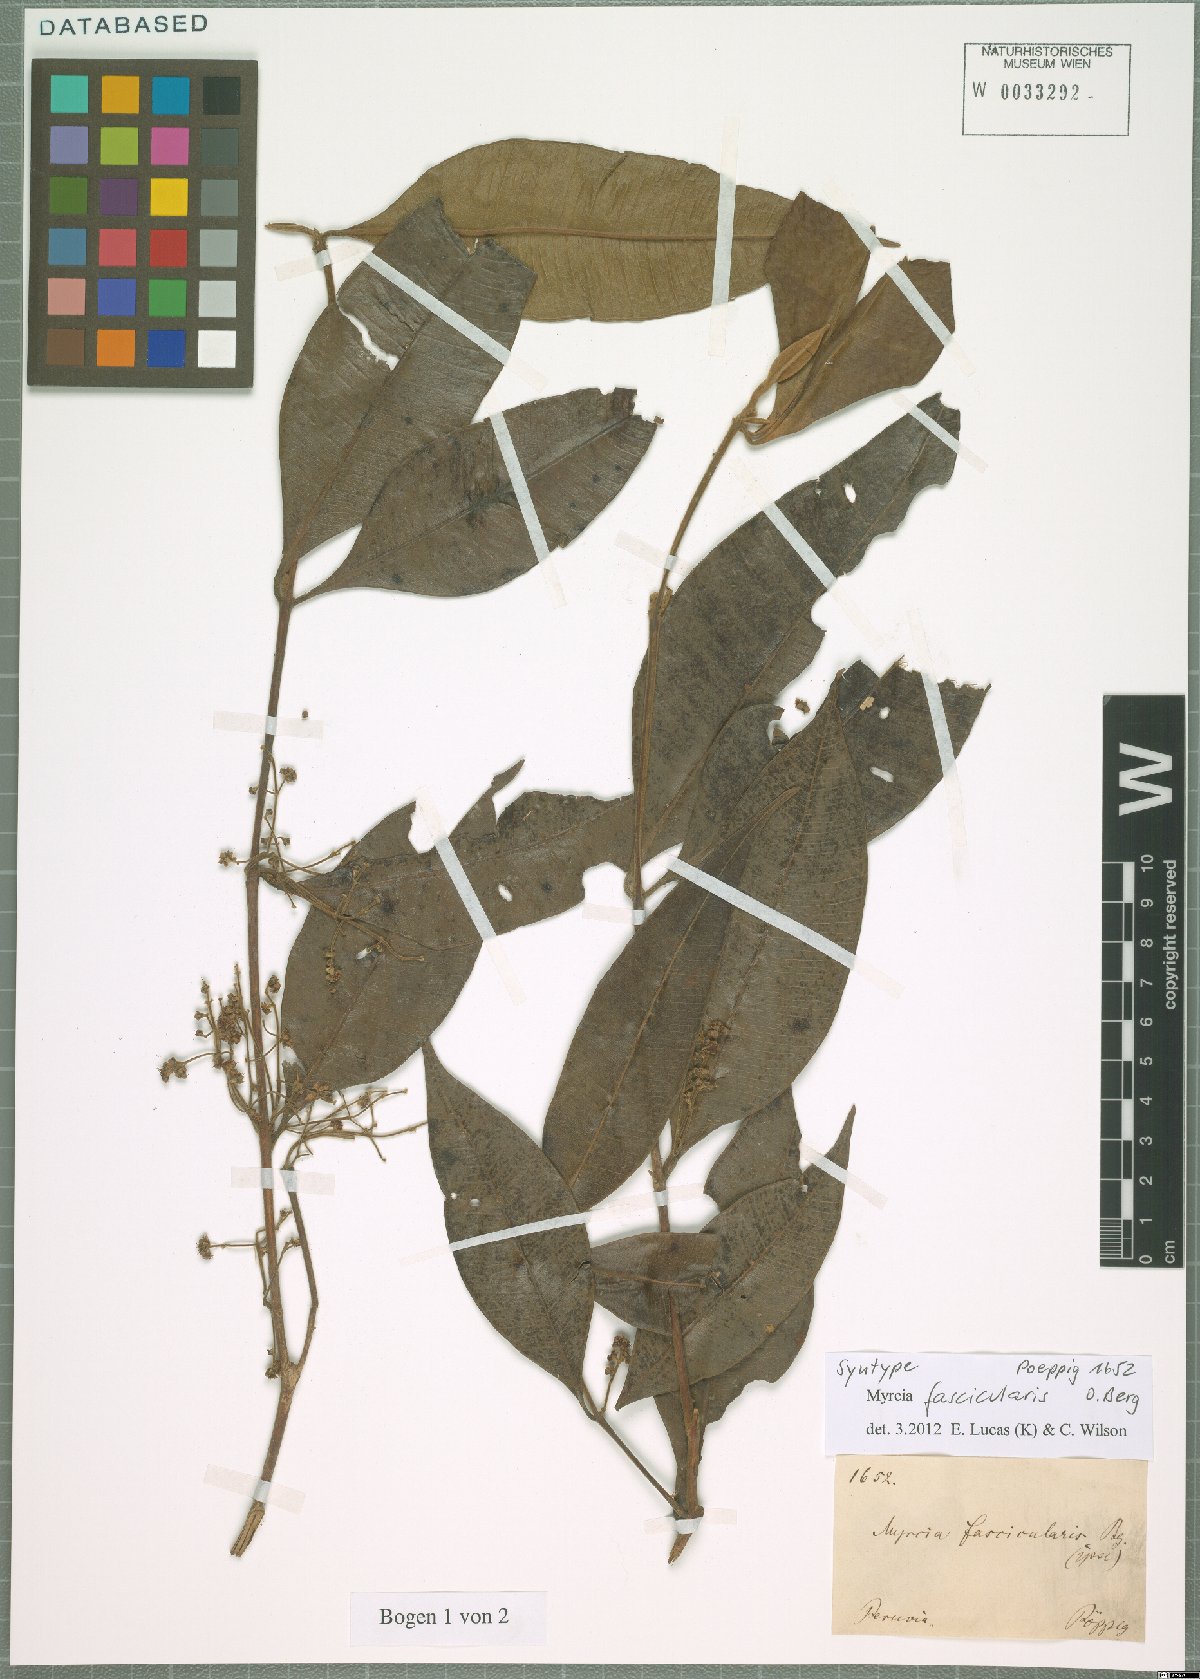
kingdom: Plantae
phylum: Tracheophyta
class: Magnoliopsida
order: Myrtales
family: Myrtaceae
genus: Myrcia
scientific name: Myrcia fascicularis
